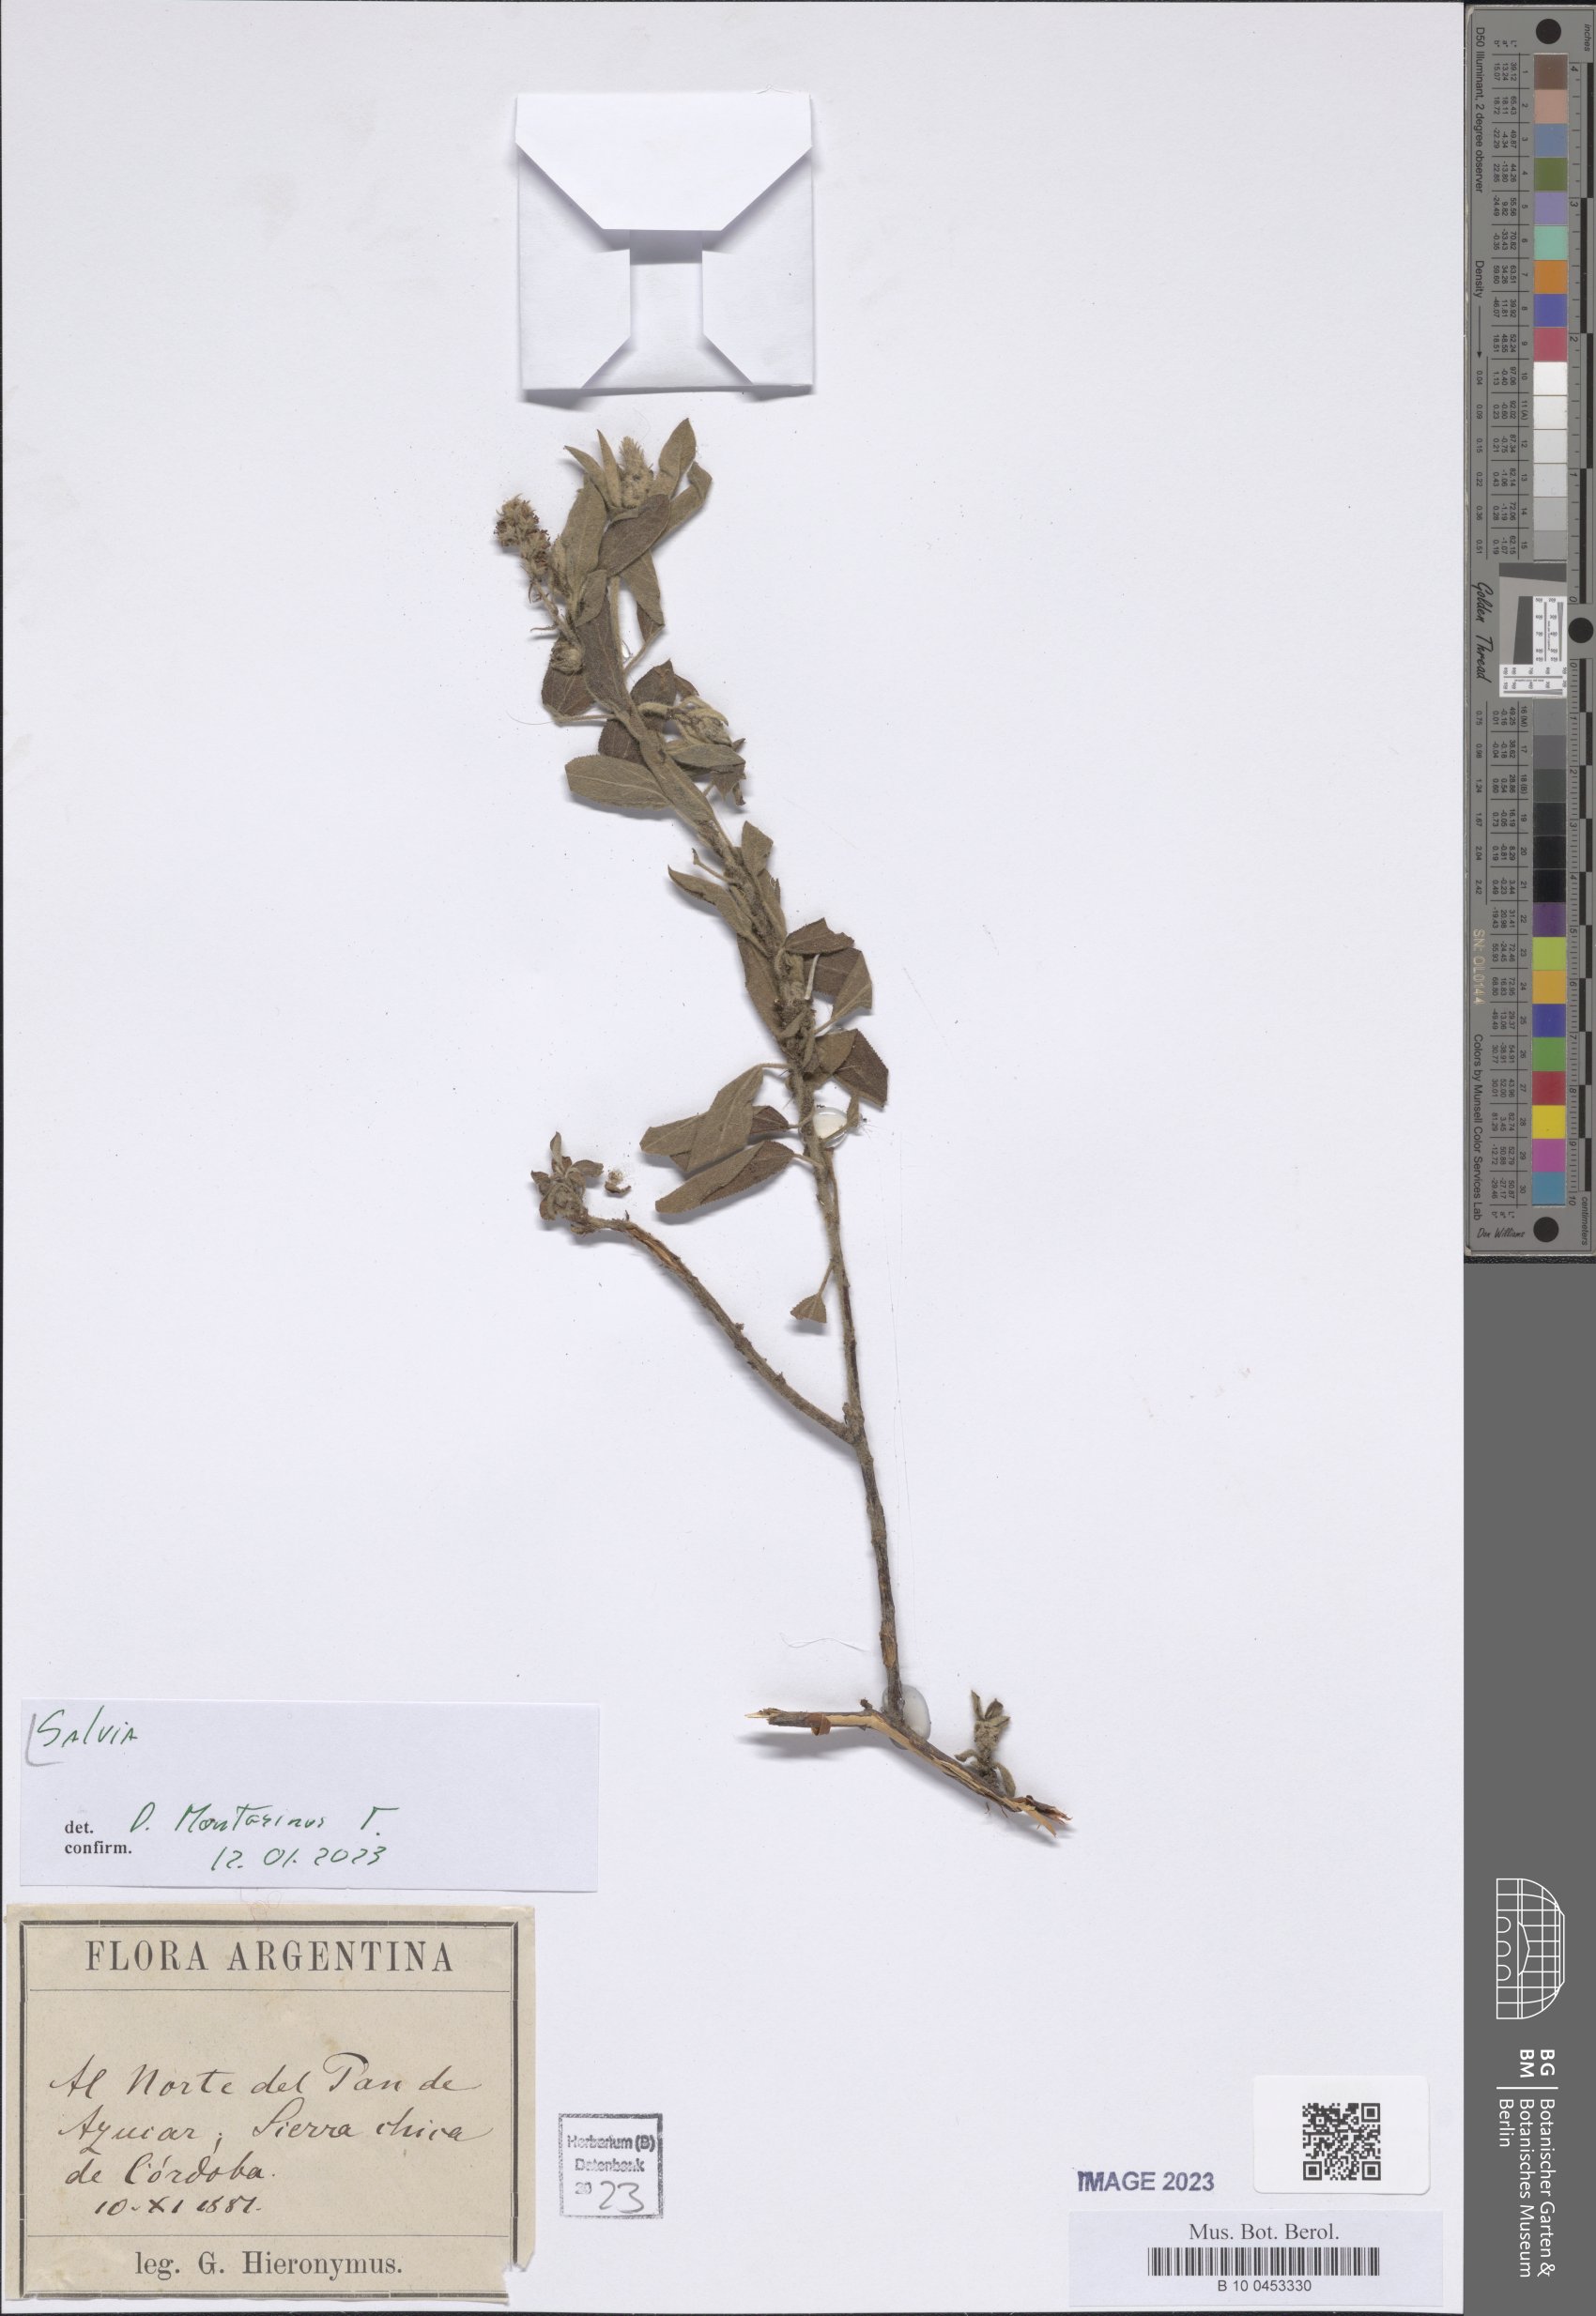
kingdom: Plantae
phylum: Tracheophyta
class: Magnoliopsida
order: Lamiales
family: Lamiaceae
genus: Salvia
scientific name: Salvia
